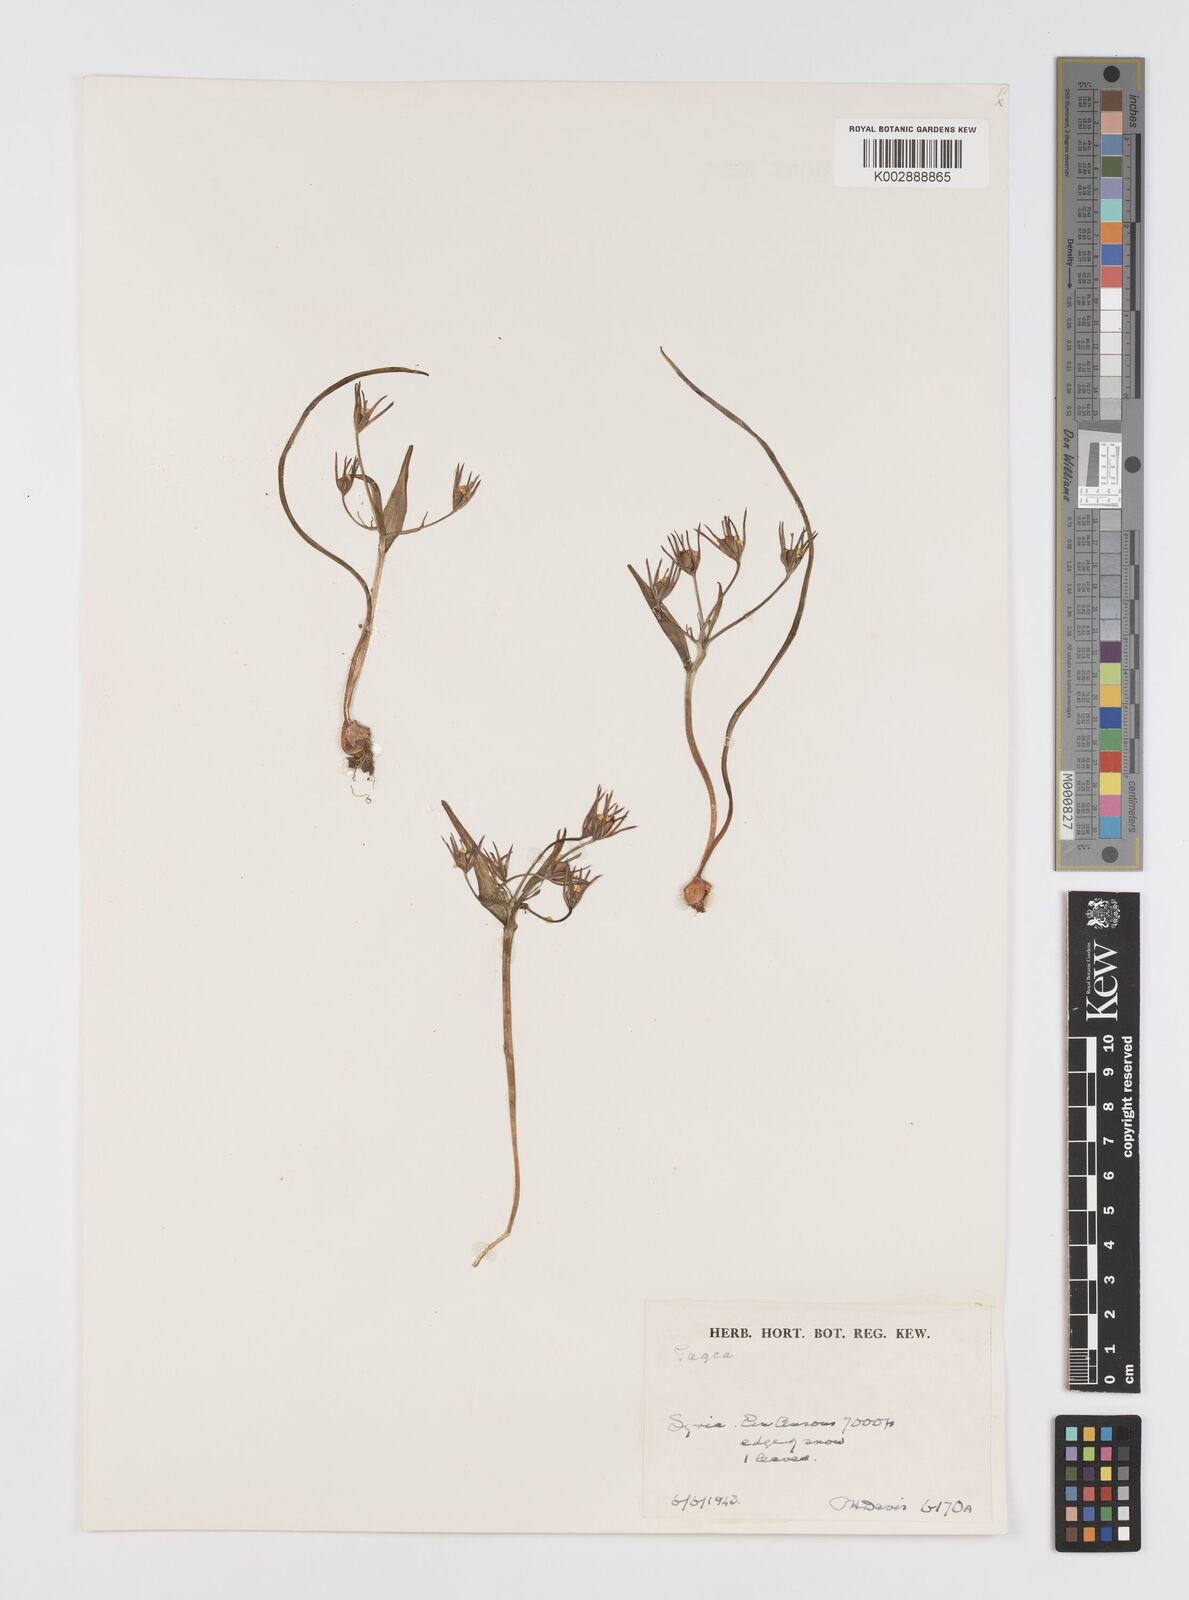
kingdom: Plantae
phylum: Tracheophyta
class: Liliopsida
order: Liliales
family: Liliaceae
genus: Gagea
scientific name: Gagea
